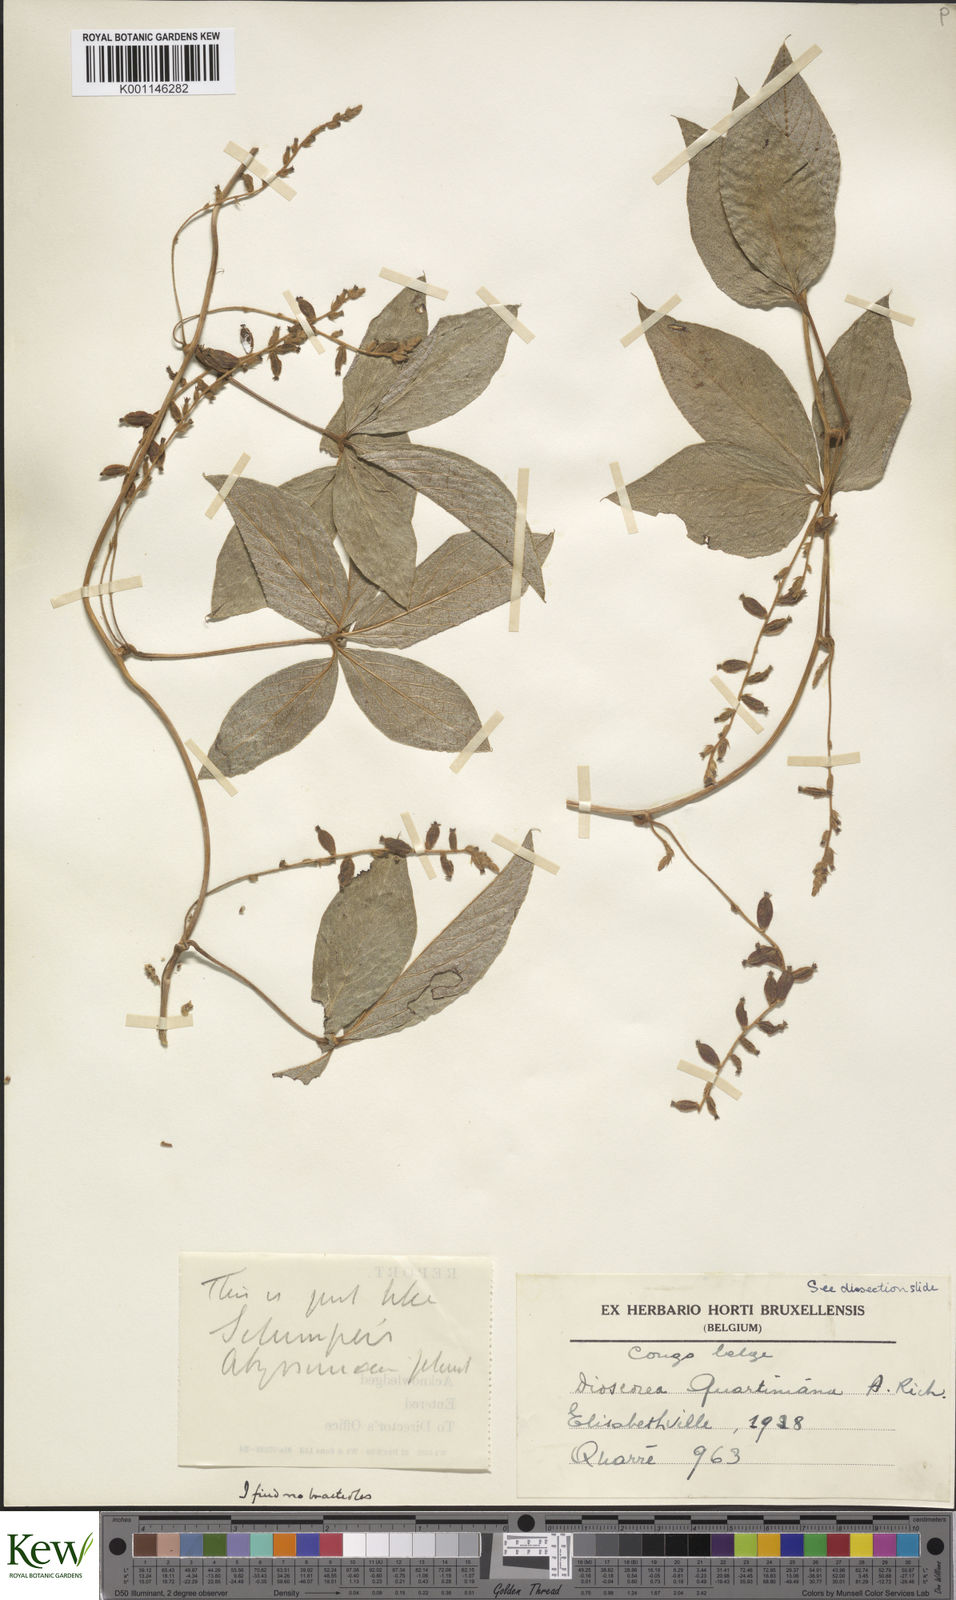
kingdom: Plantae
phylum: Tracheophyta
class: Liliopsida
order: Dioscoreales
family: Dioscoreaceae
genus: Dioscorea
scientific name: Dioscorea quartiniana
